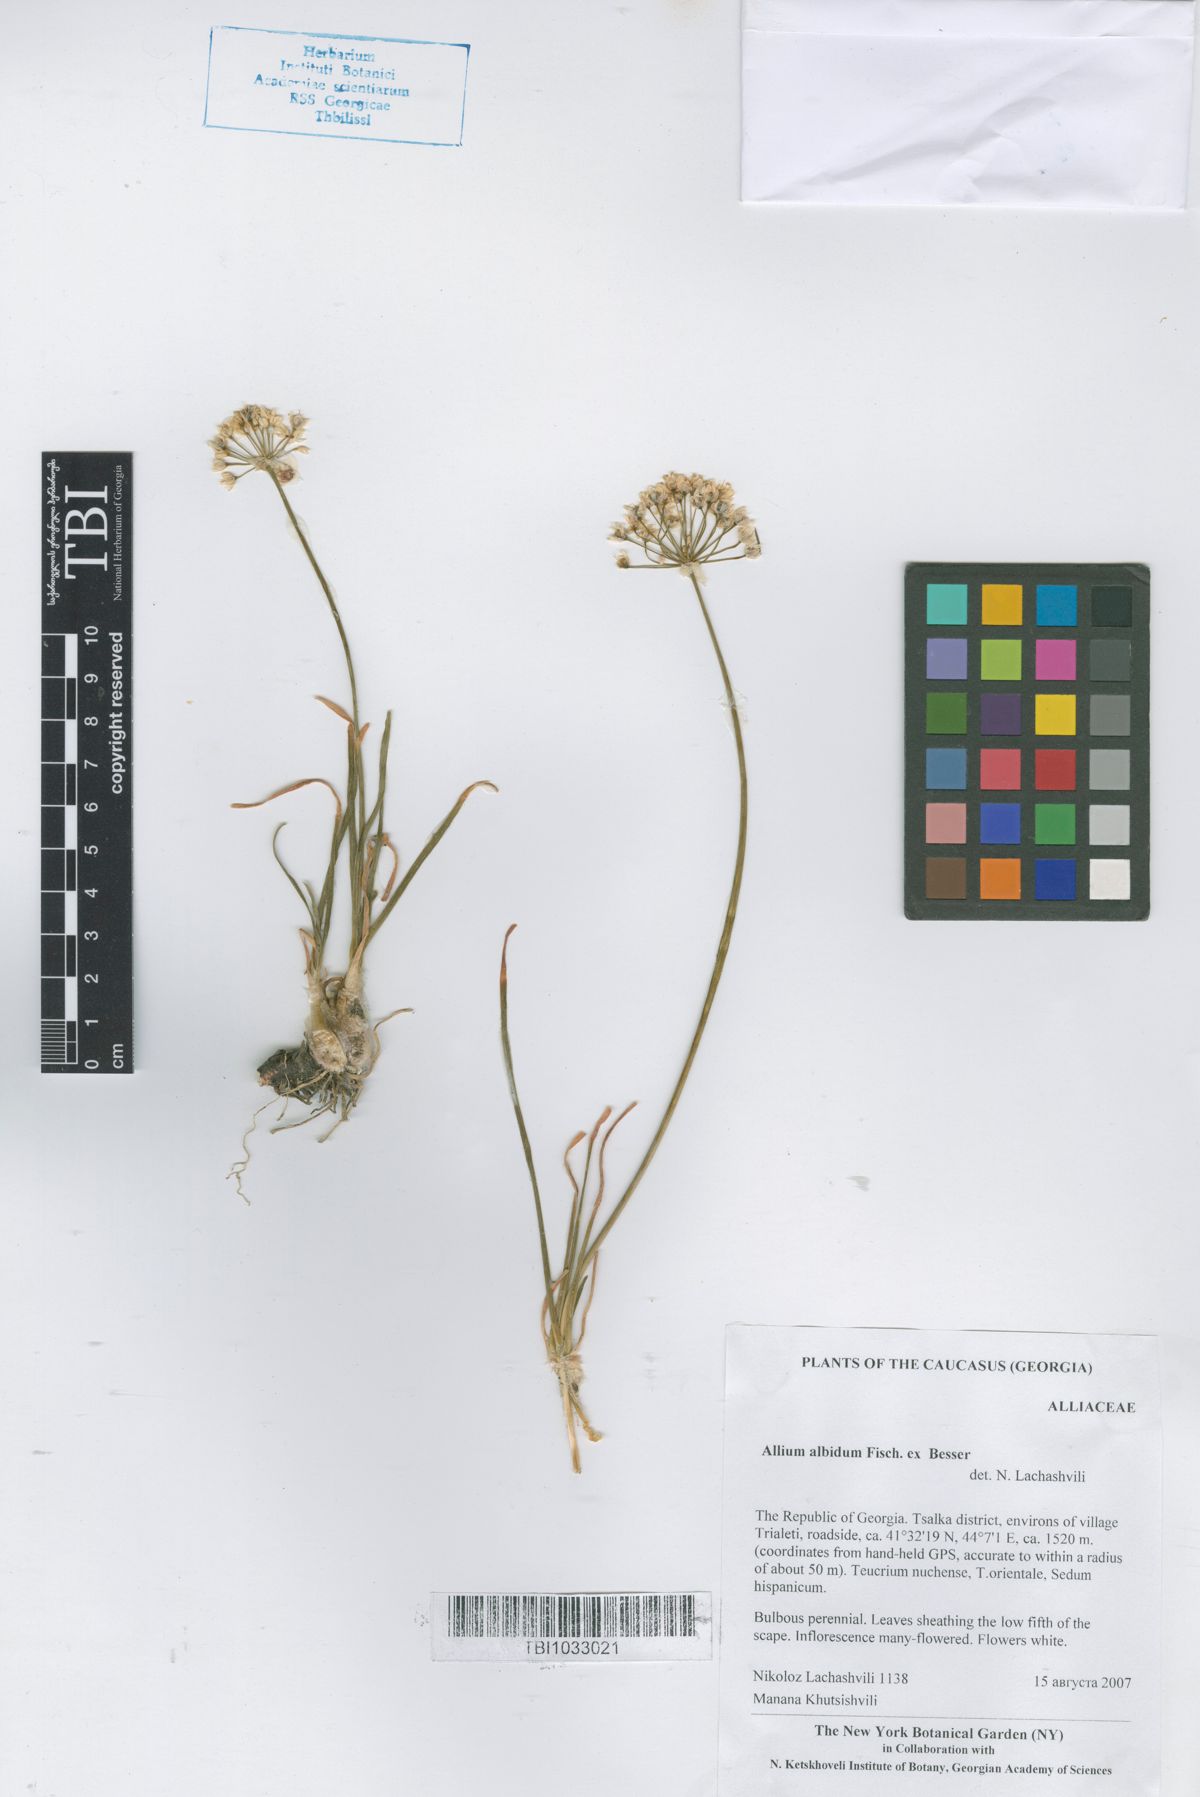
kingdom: Plantae
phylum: Tracheophyta
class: Liliopsida
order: Asparagales
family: Amaryllidaceae
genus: Allium
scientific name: Allium denudatum
